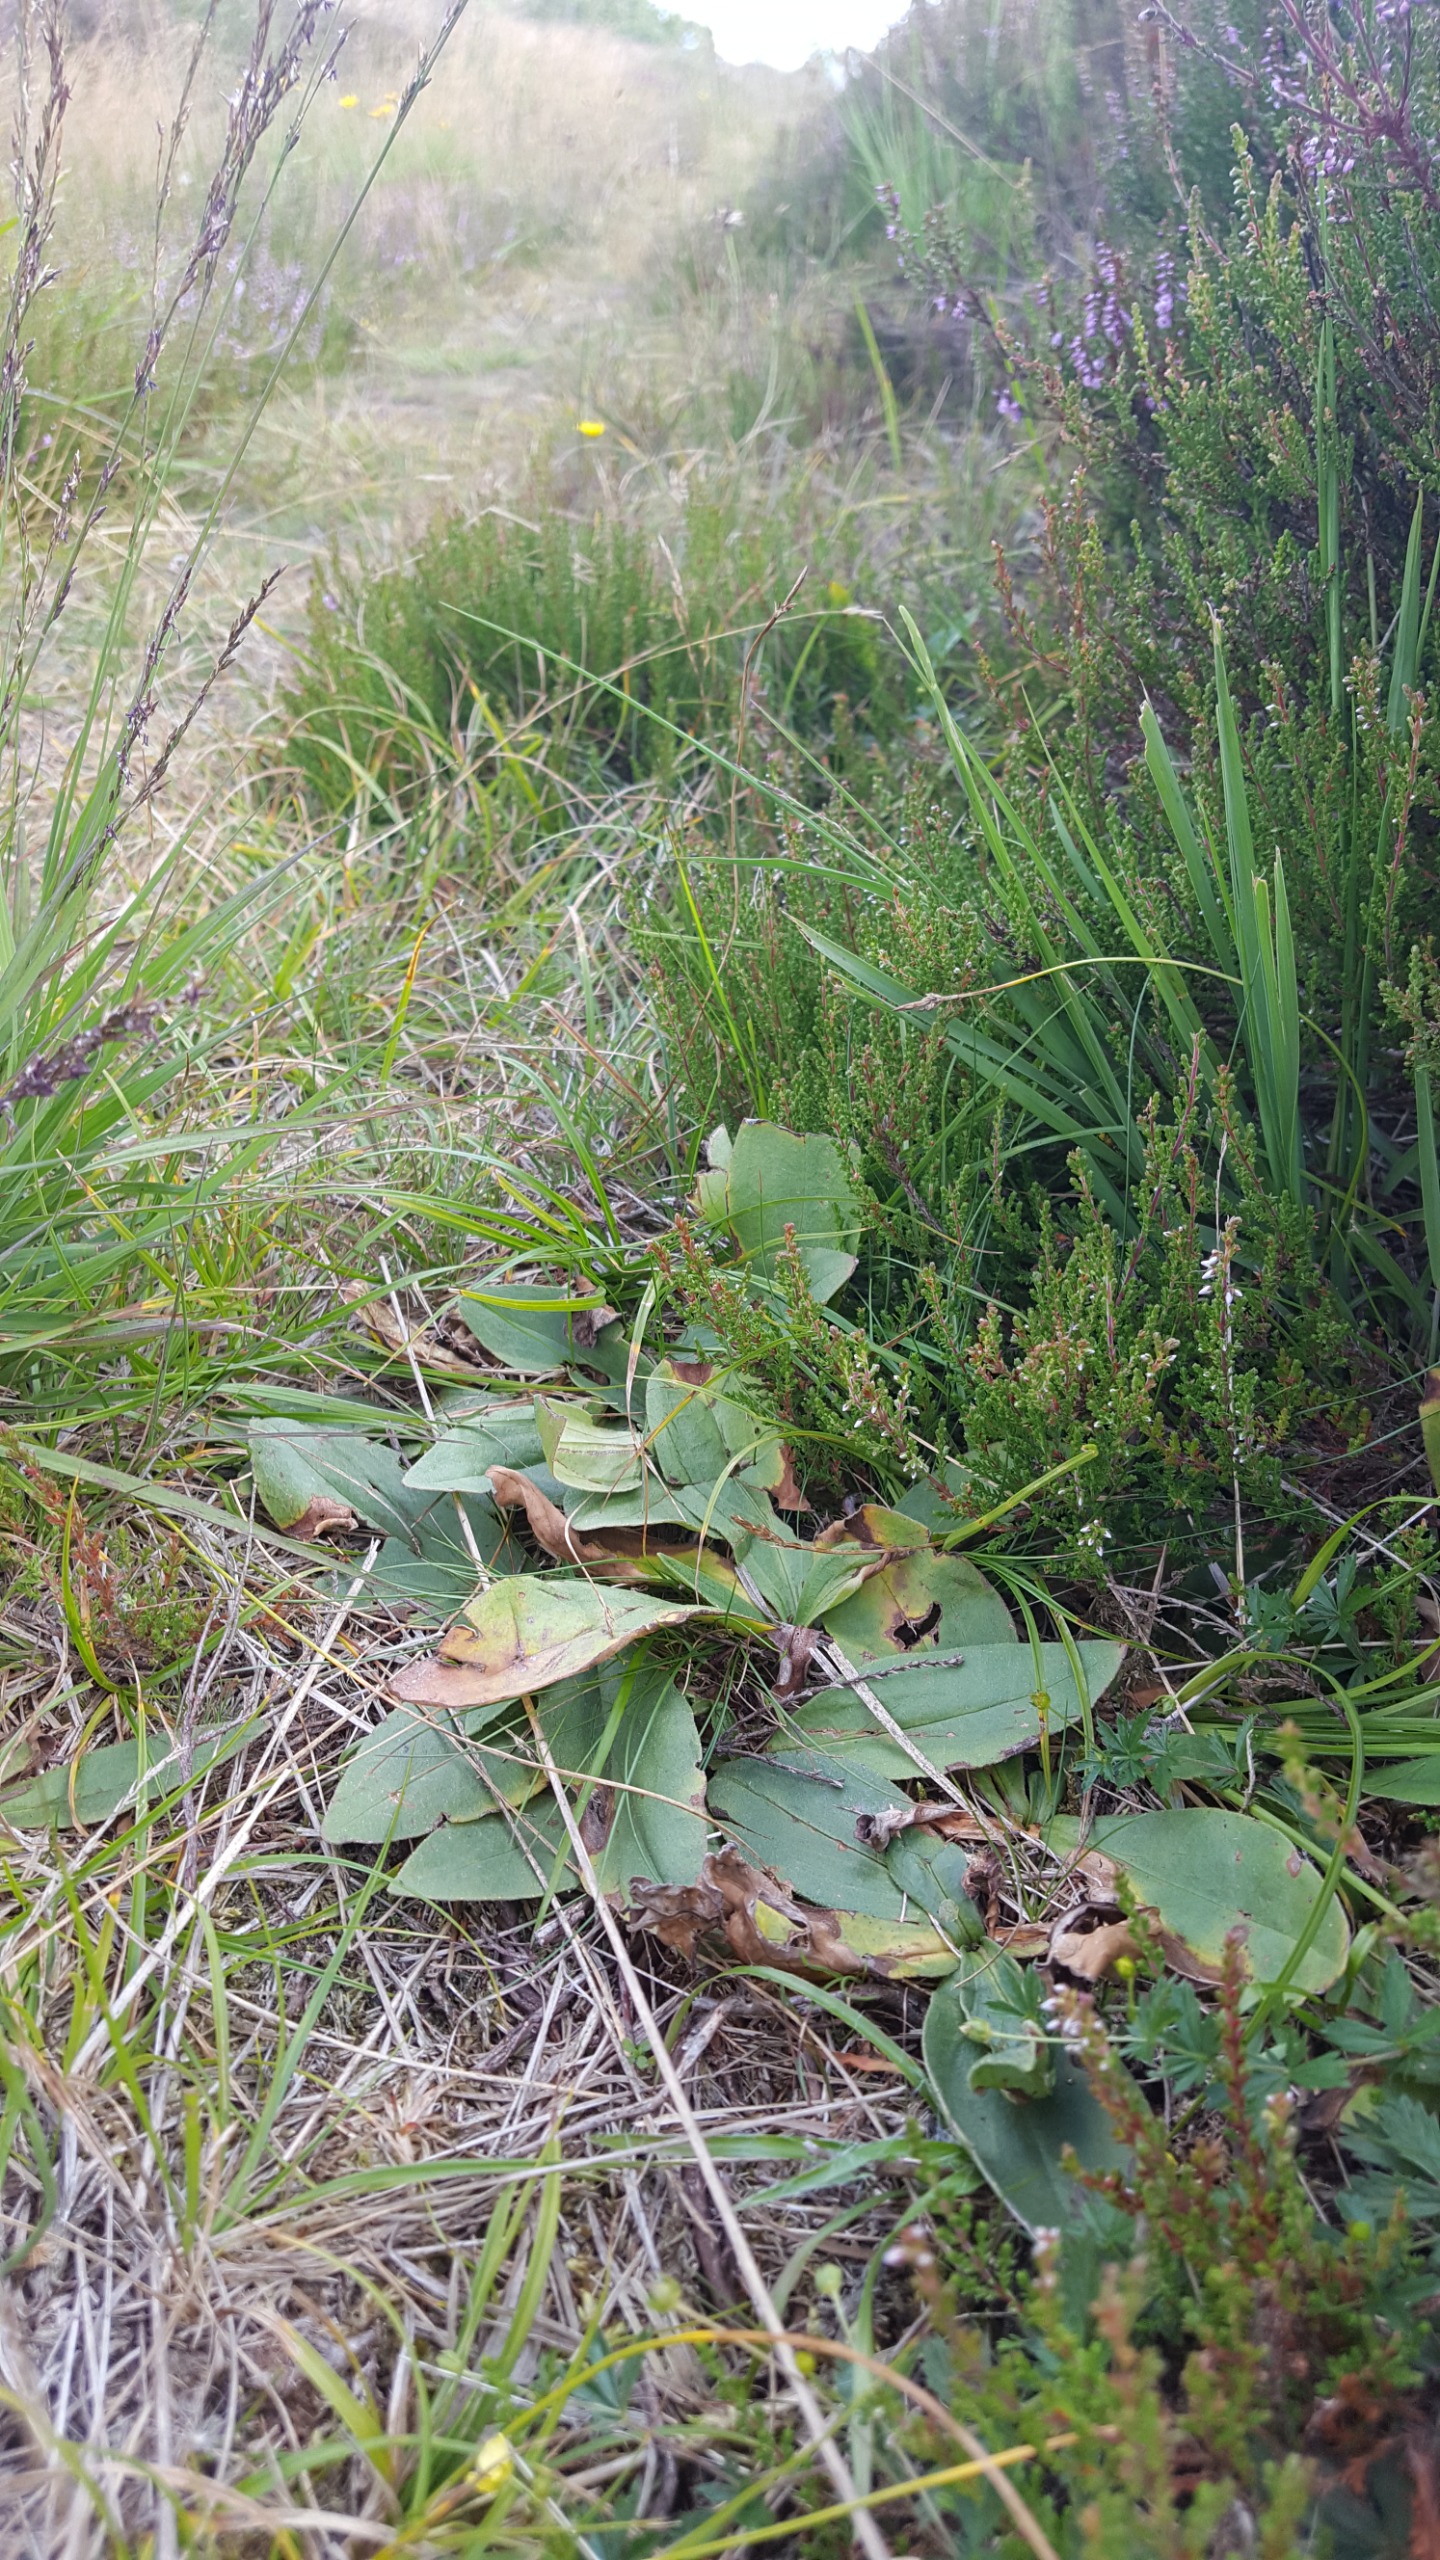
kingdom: Plantae
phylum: Tracheophyta
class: Magnoliopsida
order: Asterales
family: Asteraceae
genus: Arnica
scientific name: Arnica montana
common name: Guldblomme
